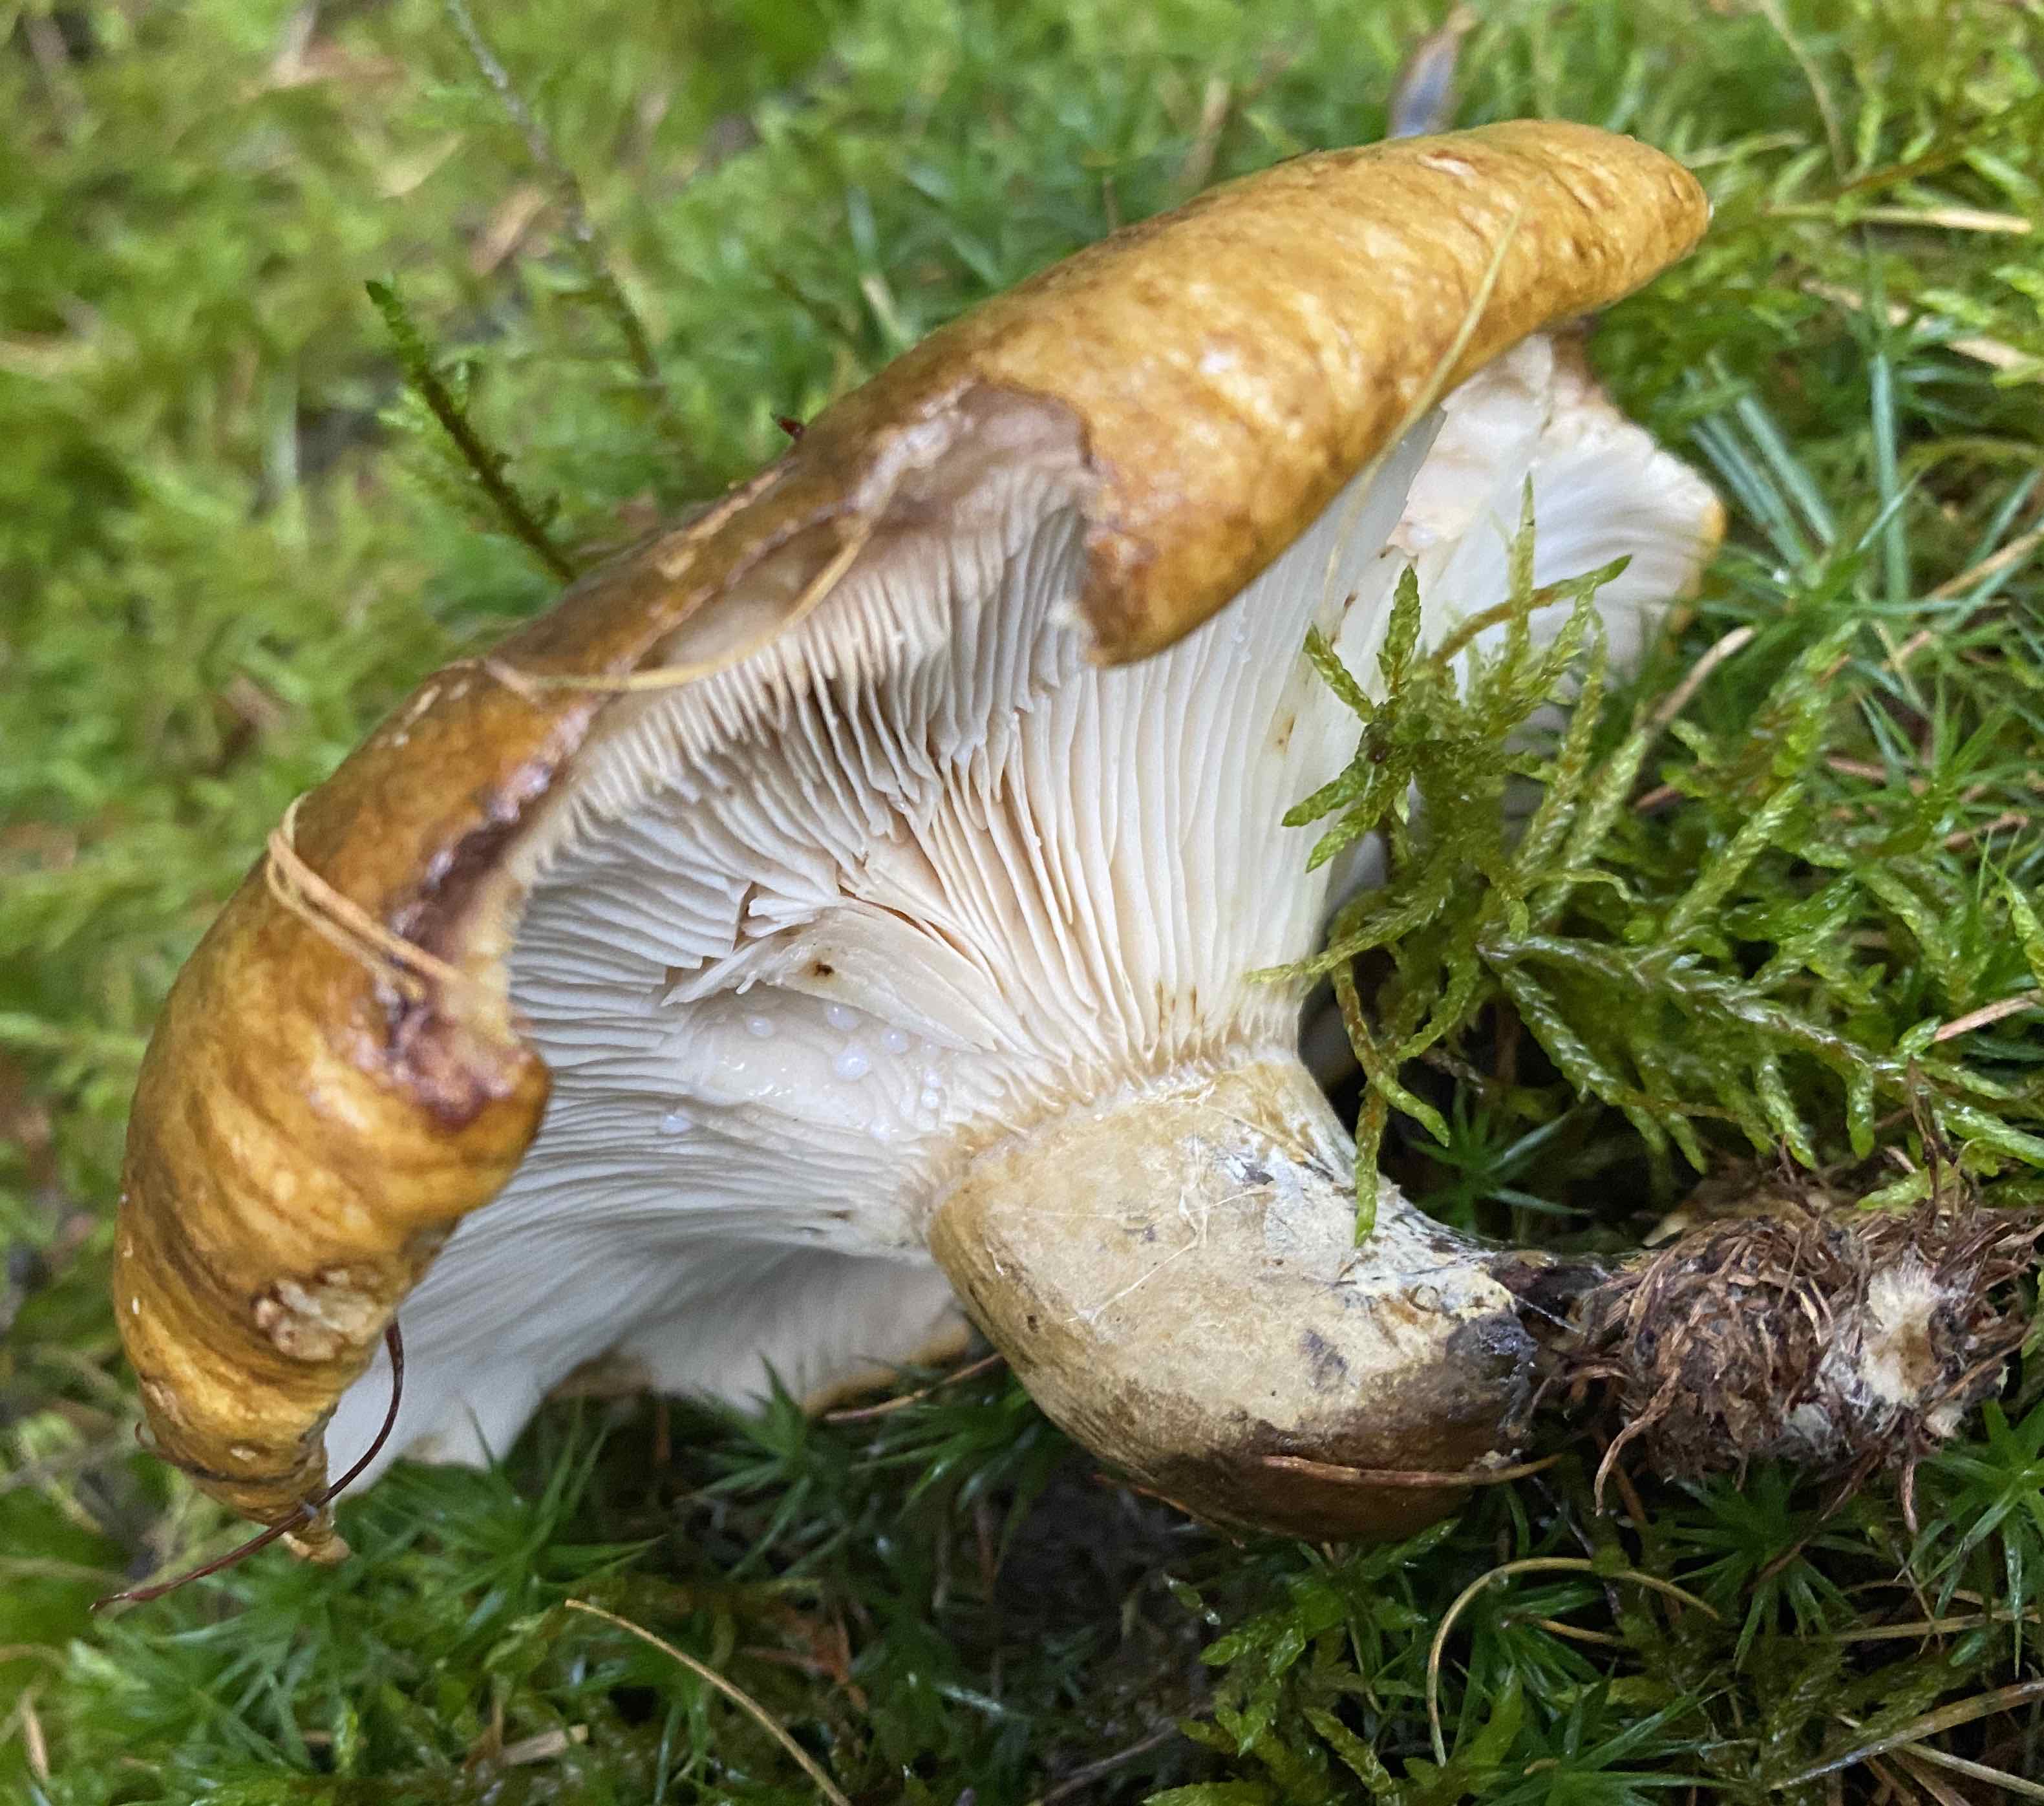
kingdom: Fungi
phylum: Basidiomycota
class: Agaricomycetes
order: Russulales
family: Russulaceae
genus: Lactarius
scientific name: Lactarius necator
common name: manddraber-mælkehat
